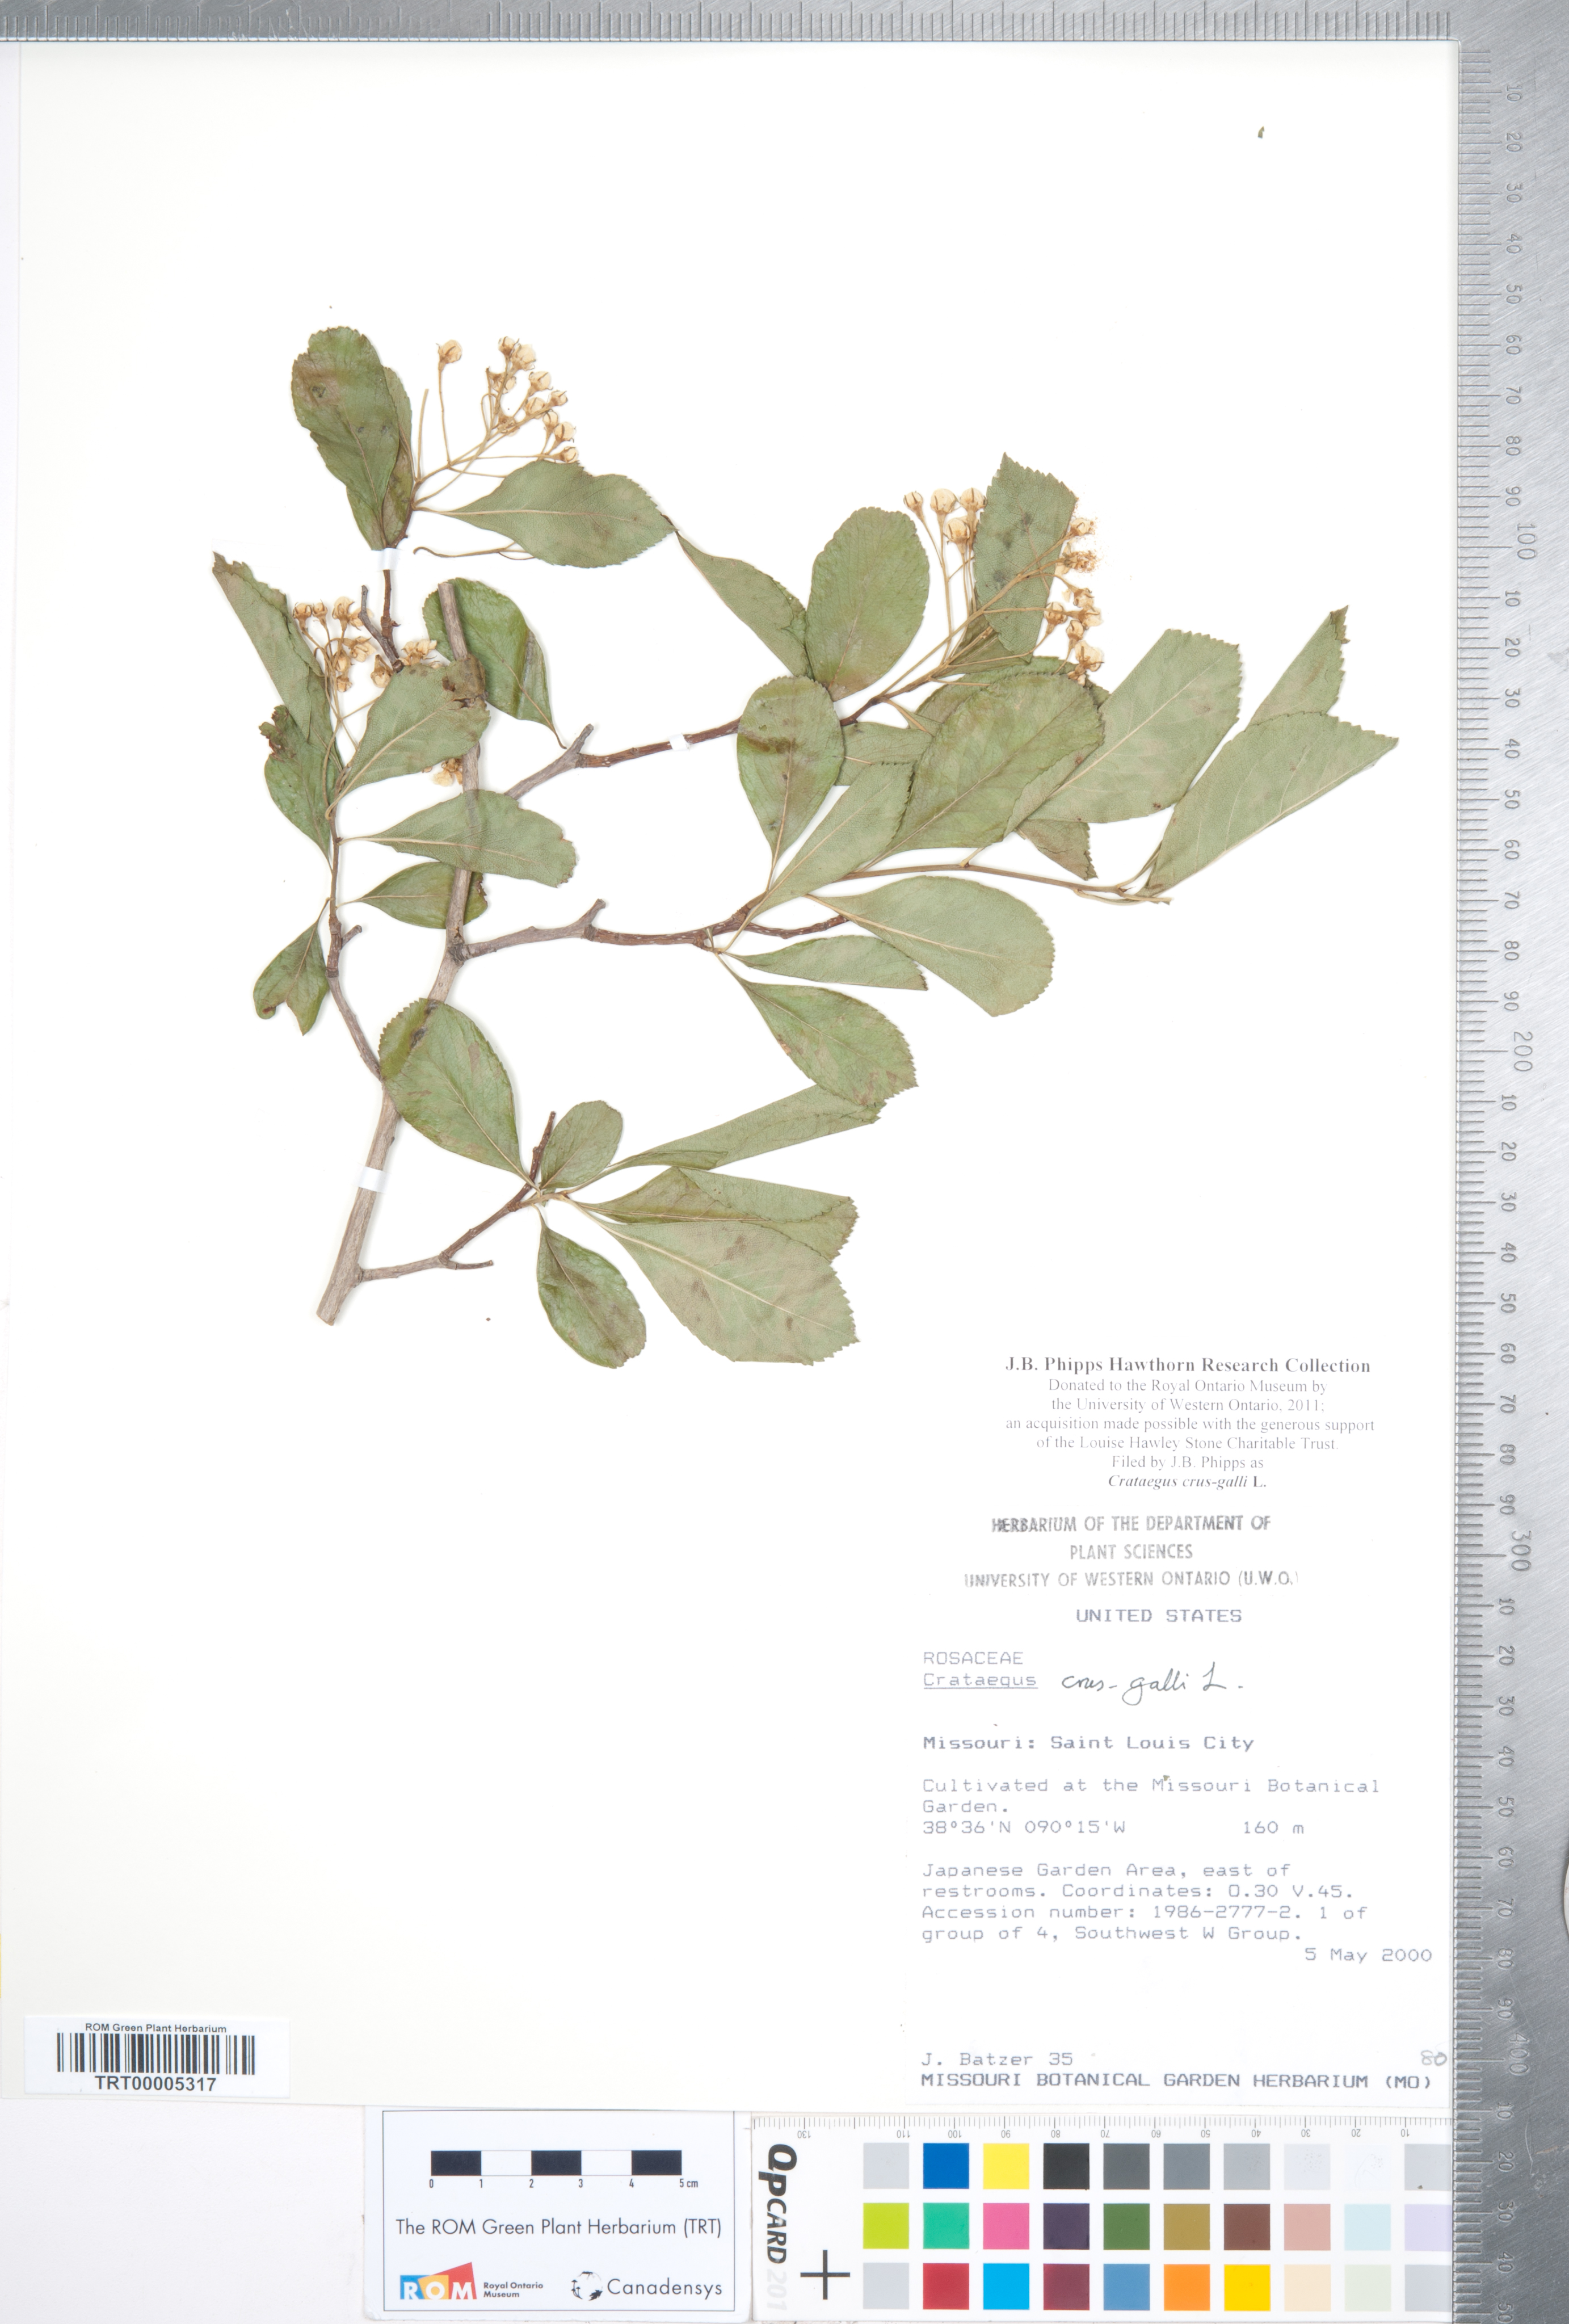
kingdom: Plantae
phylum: Tracheophyta
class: Magnoliopsida
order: Rosales
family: Rosaceae
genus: Crataegus
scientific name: Crataegus crus-galli
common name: Cockspurthorn
